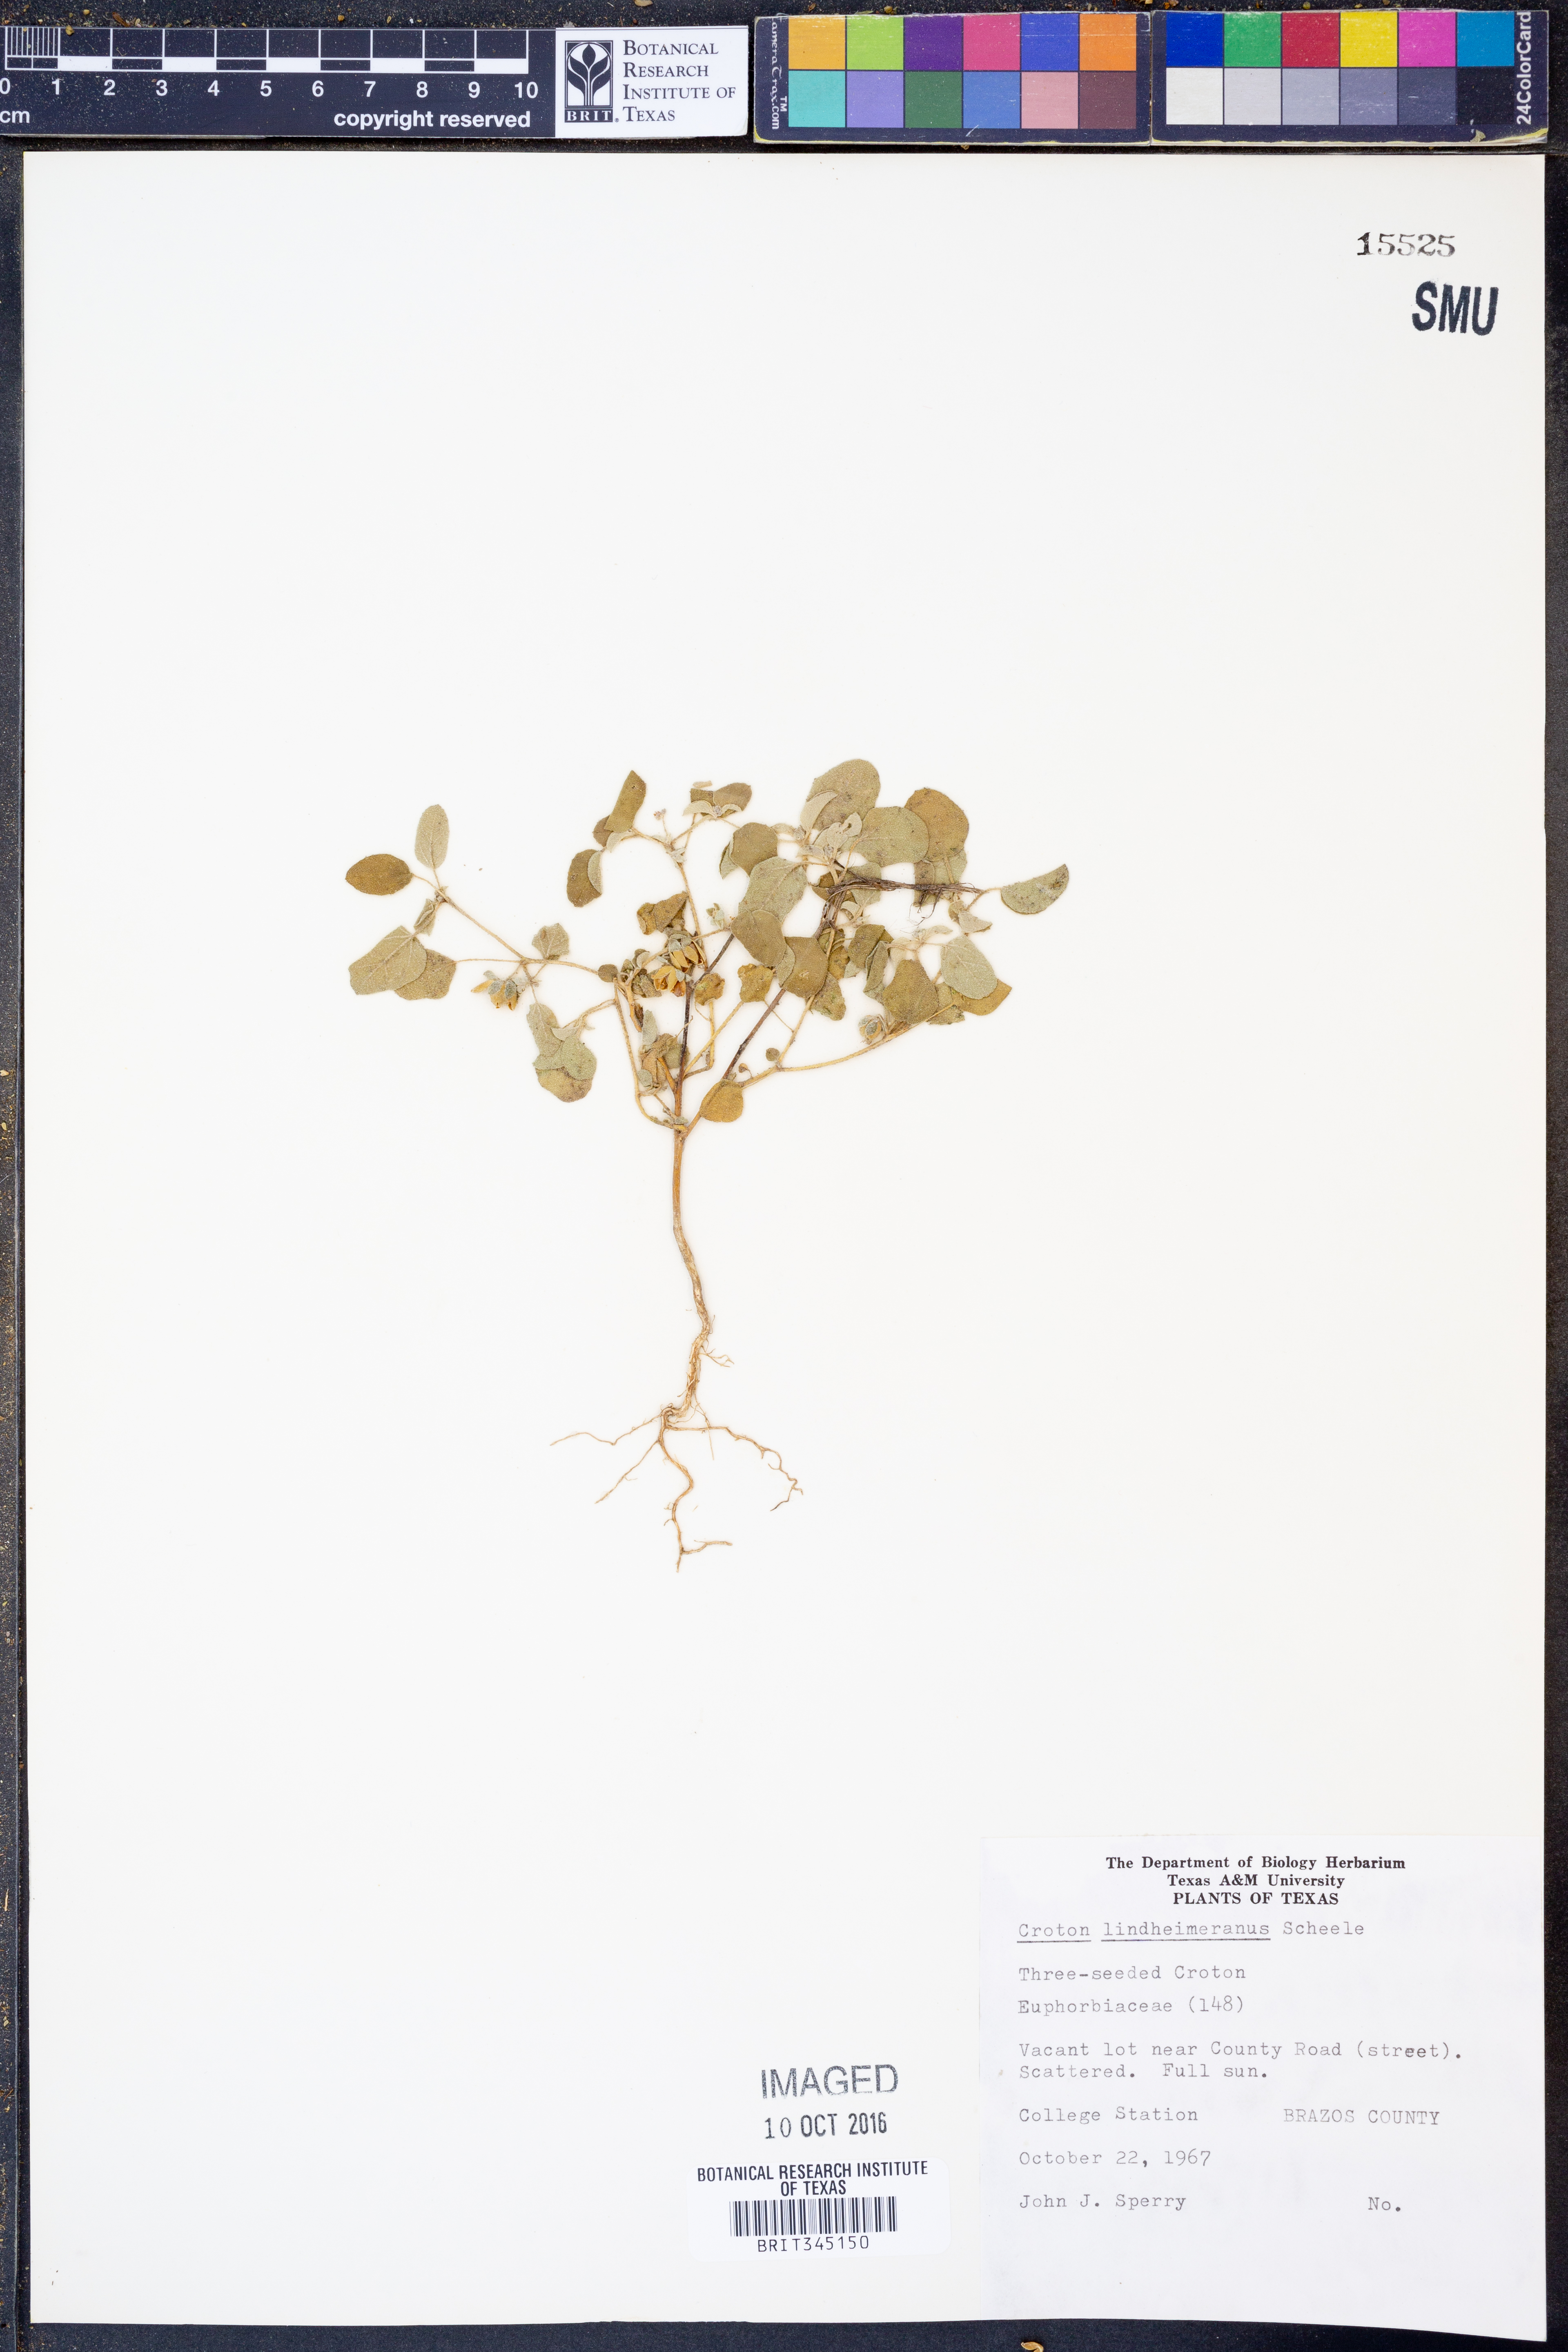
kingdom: Plantae
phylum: Tracheophyta
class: Magnoliopsida
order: Malpighiales
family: Euphorbiaceae
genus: Croton
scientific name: Croton lindheimerianus
